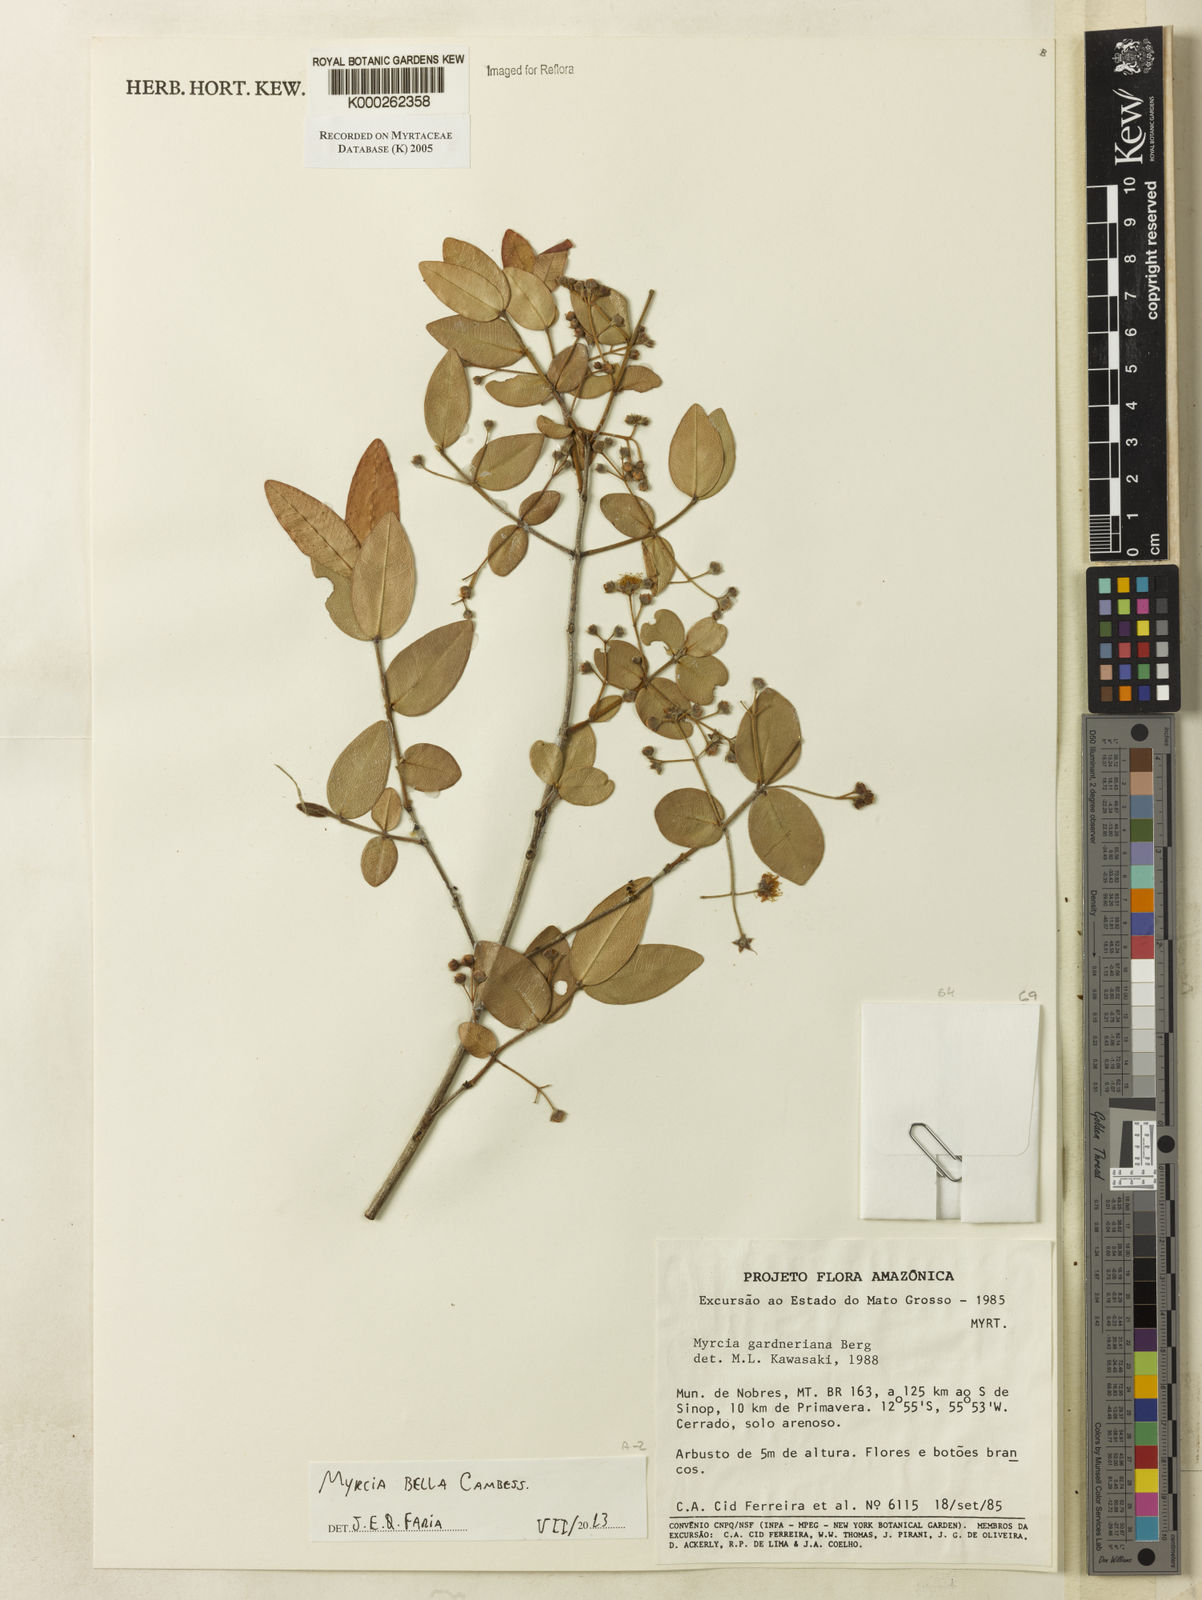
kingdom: Plantae
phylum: Tracheophyta
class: Magnoliopsida
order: Myrtales
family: Myrtaceae
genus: Myrcia
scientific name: Myrcia splendens
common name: Surinam cherry
